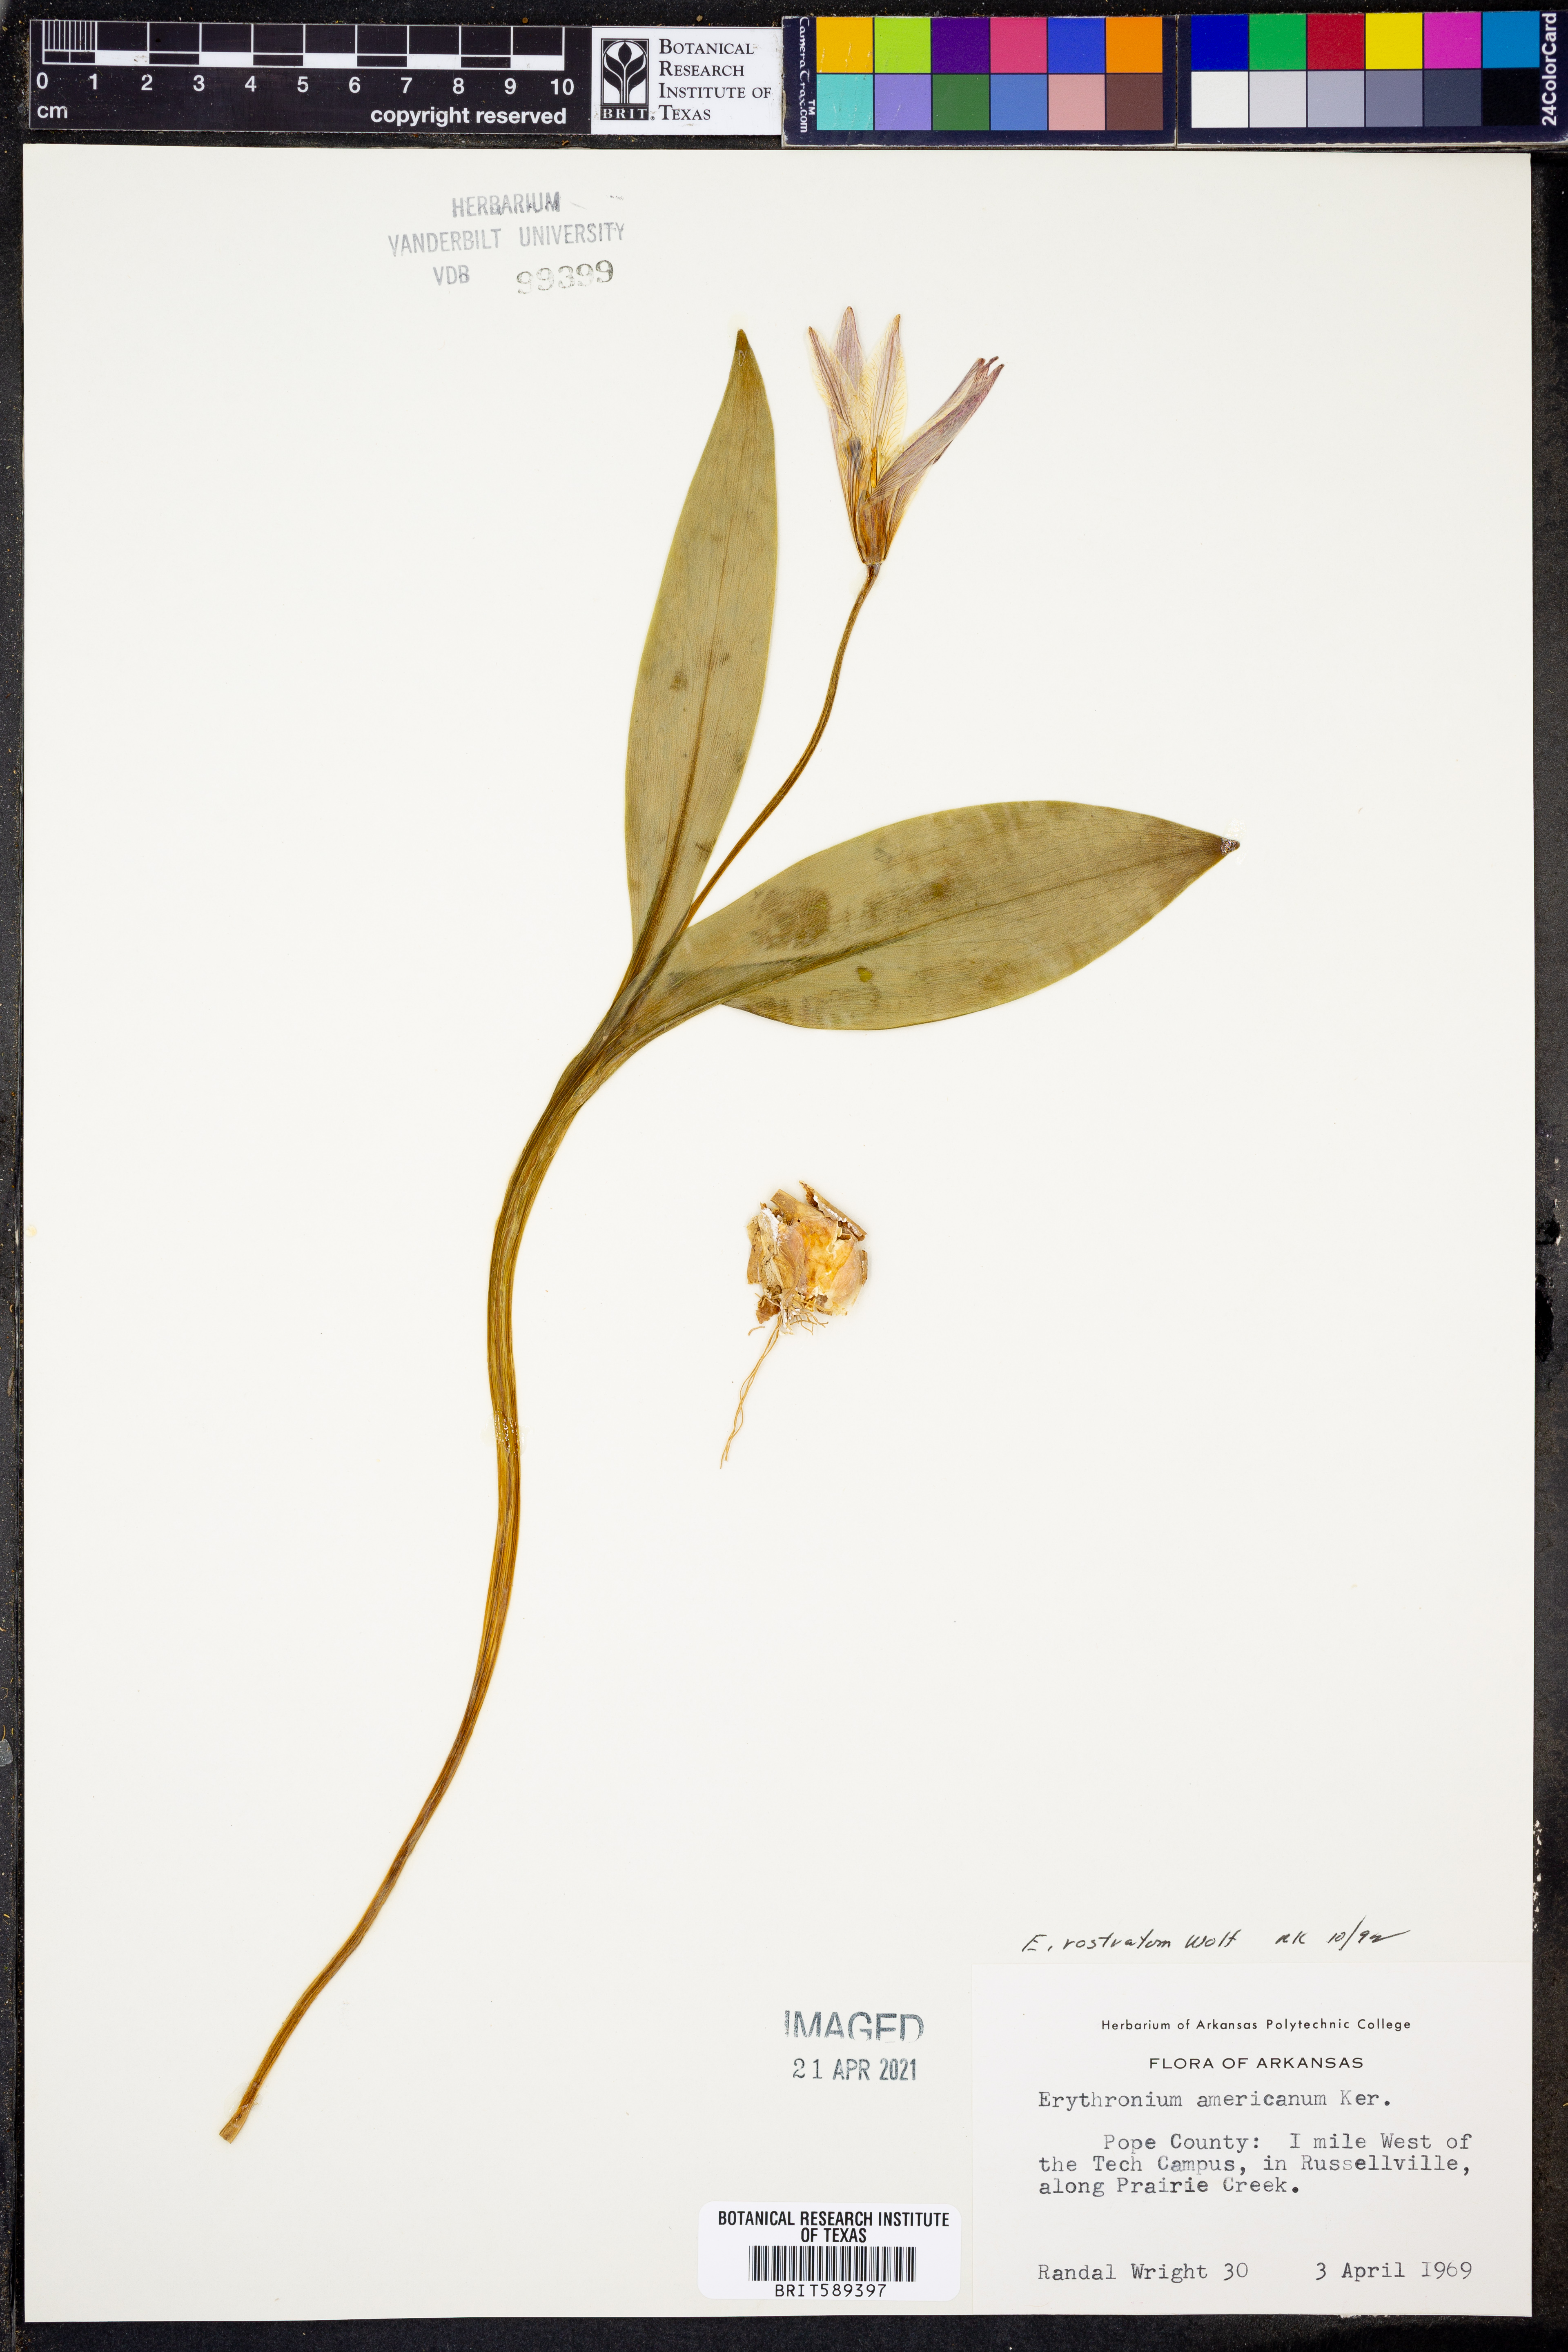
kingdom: Plantae
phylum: Tracheophyta
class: Liliopsida
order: Liliales
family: Liliaceae
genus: Erythronium
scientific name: Erythronium rostratum
